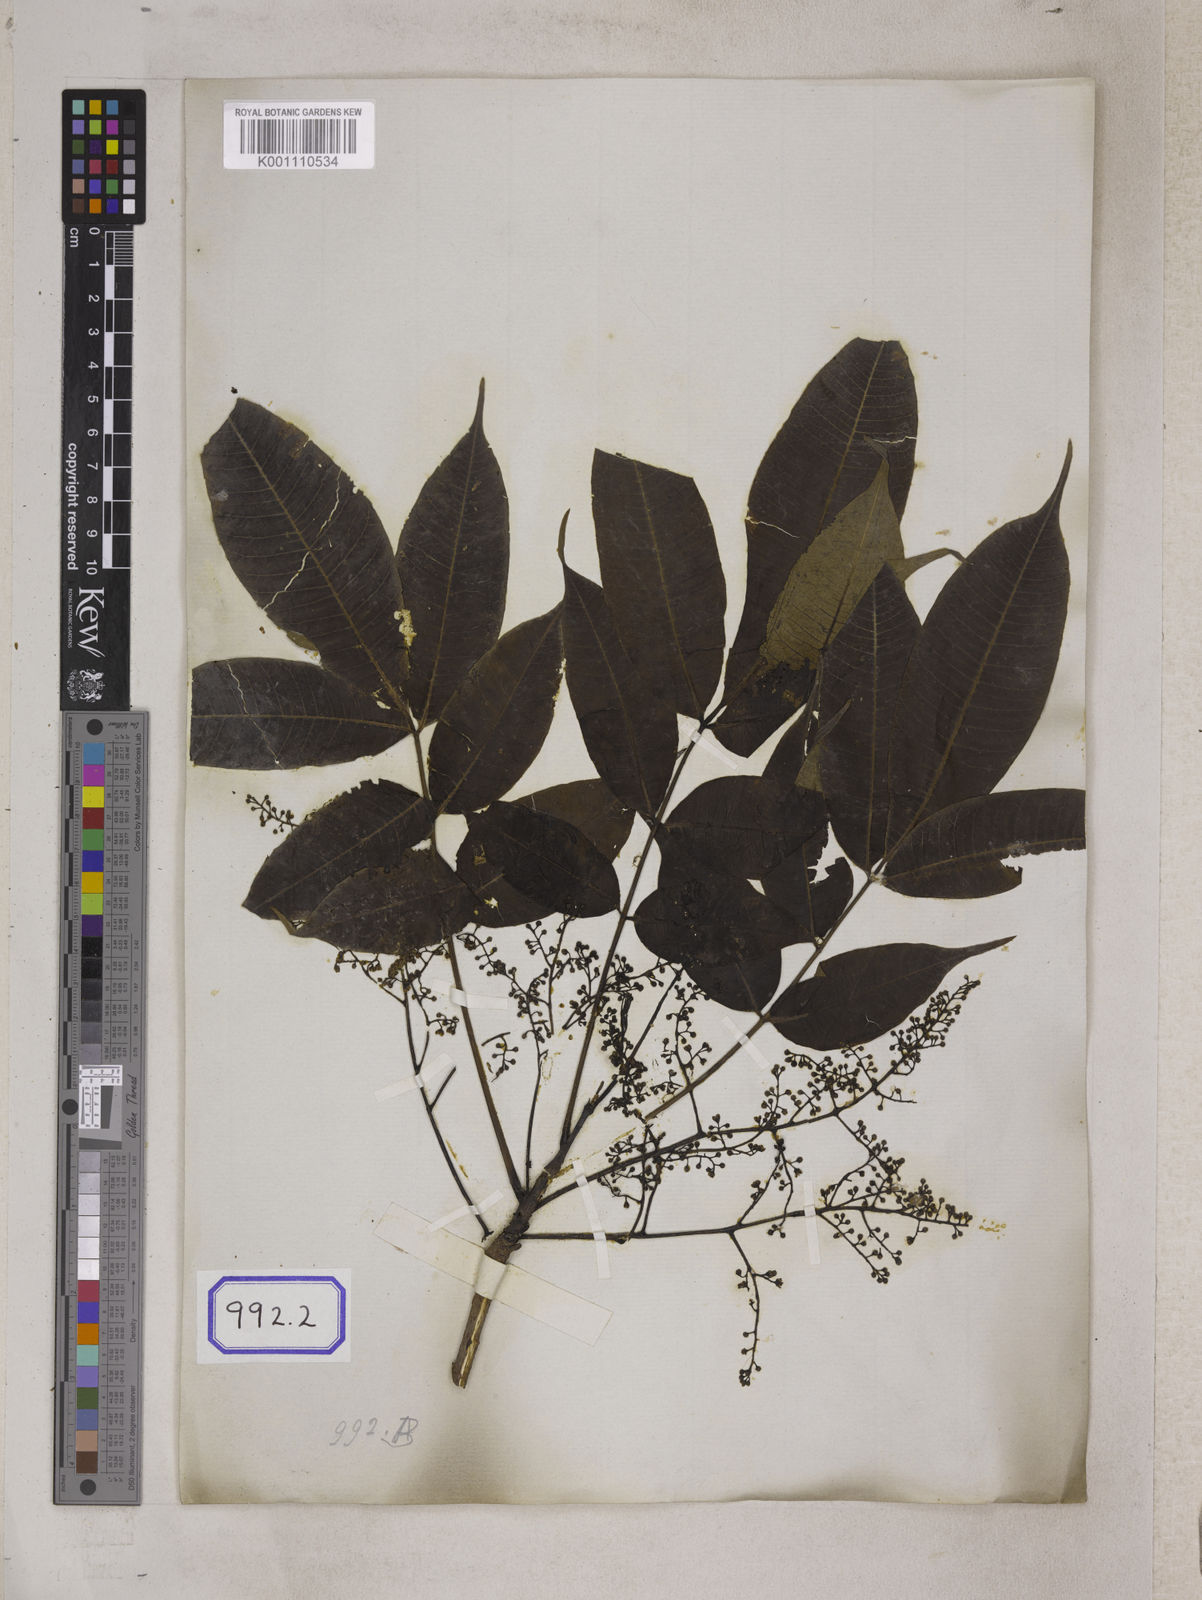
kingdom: Plantae
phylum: Tracheophyta
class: Magnoliopsida
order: Sapindales
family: Anacardiaceae
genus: Toxicodendron
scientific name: Toxicodendron succedaneum
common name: Wax tree
